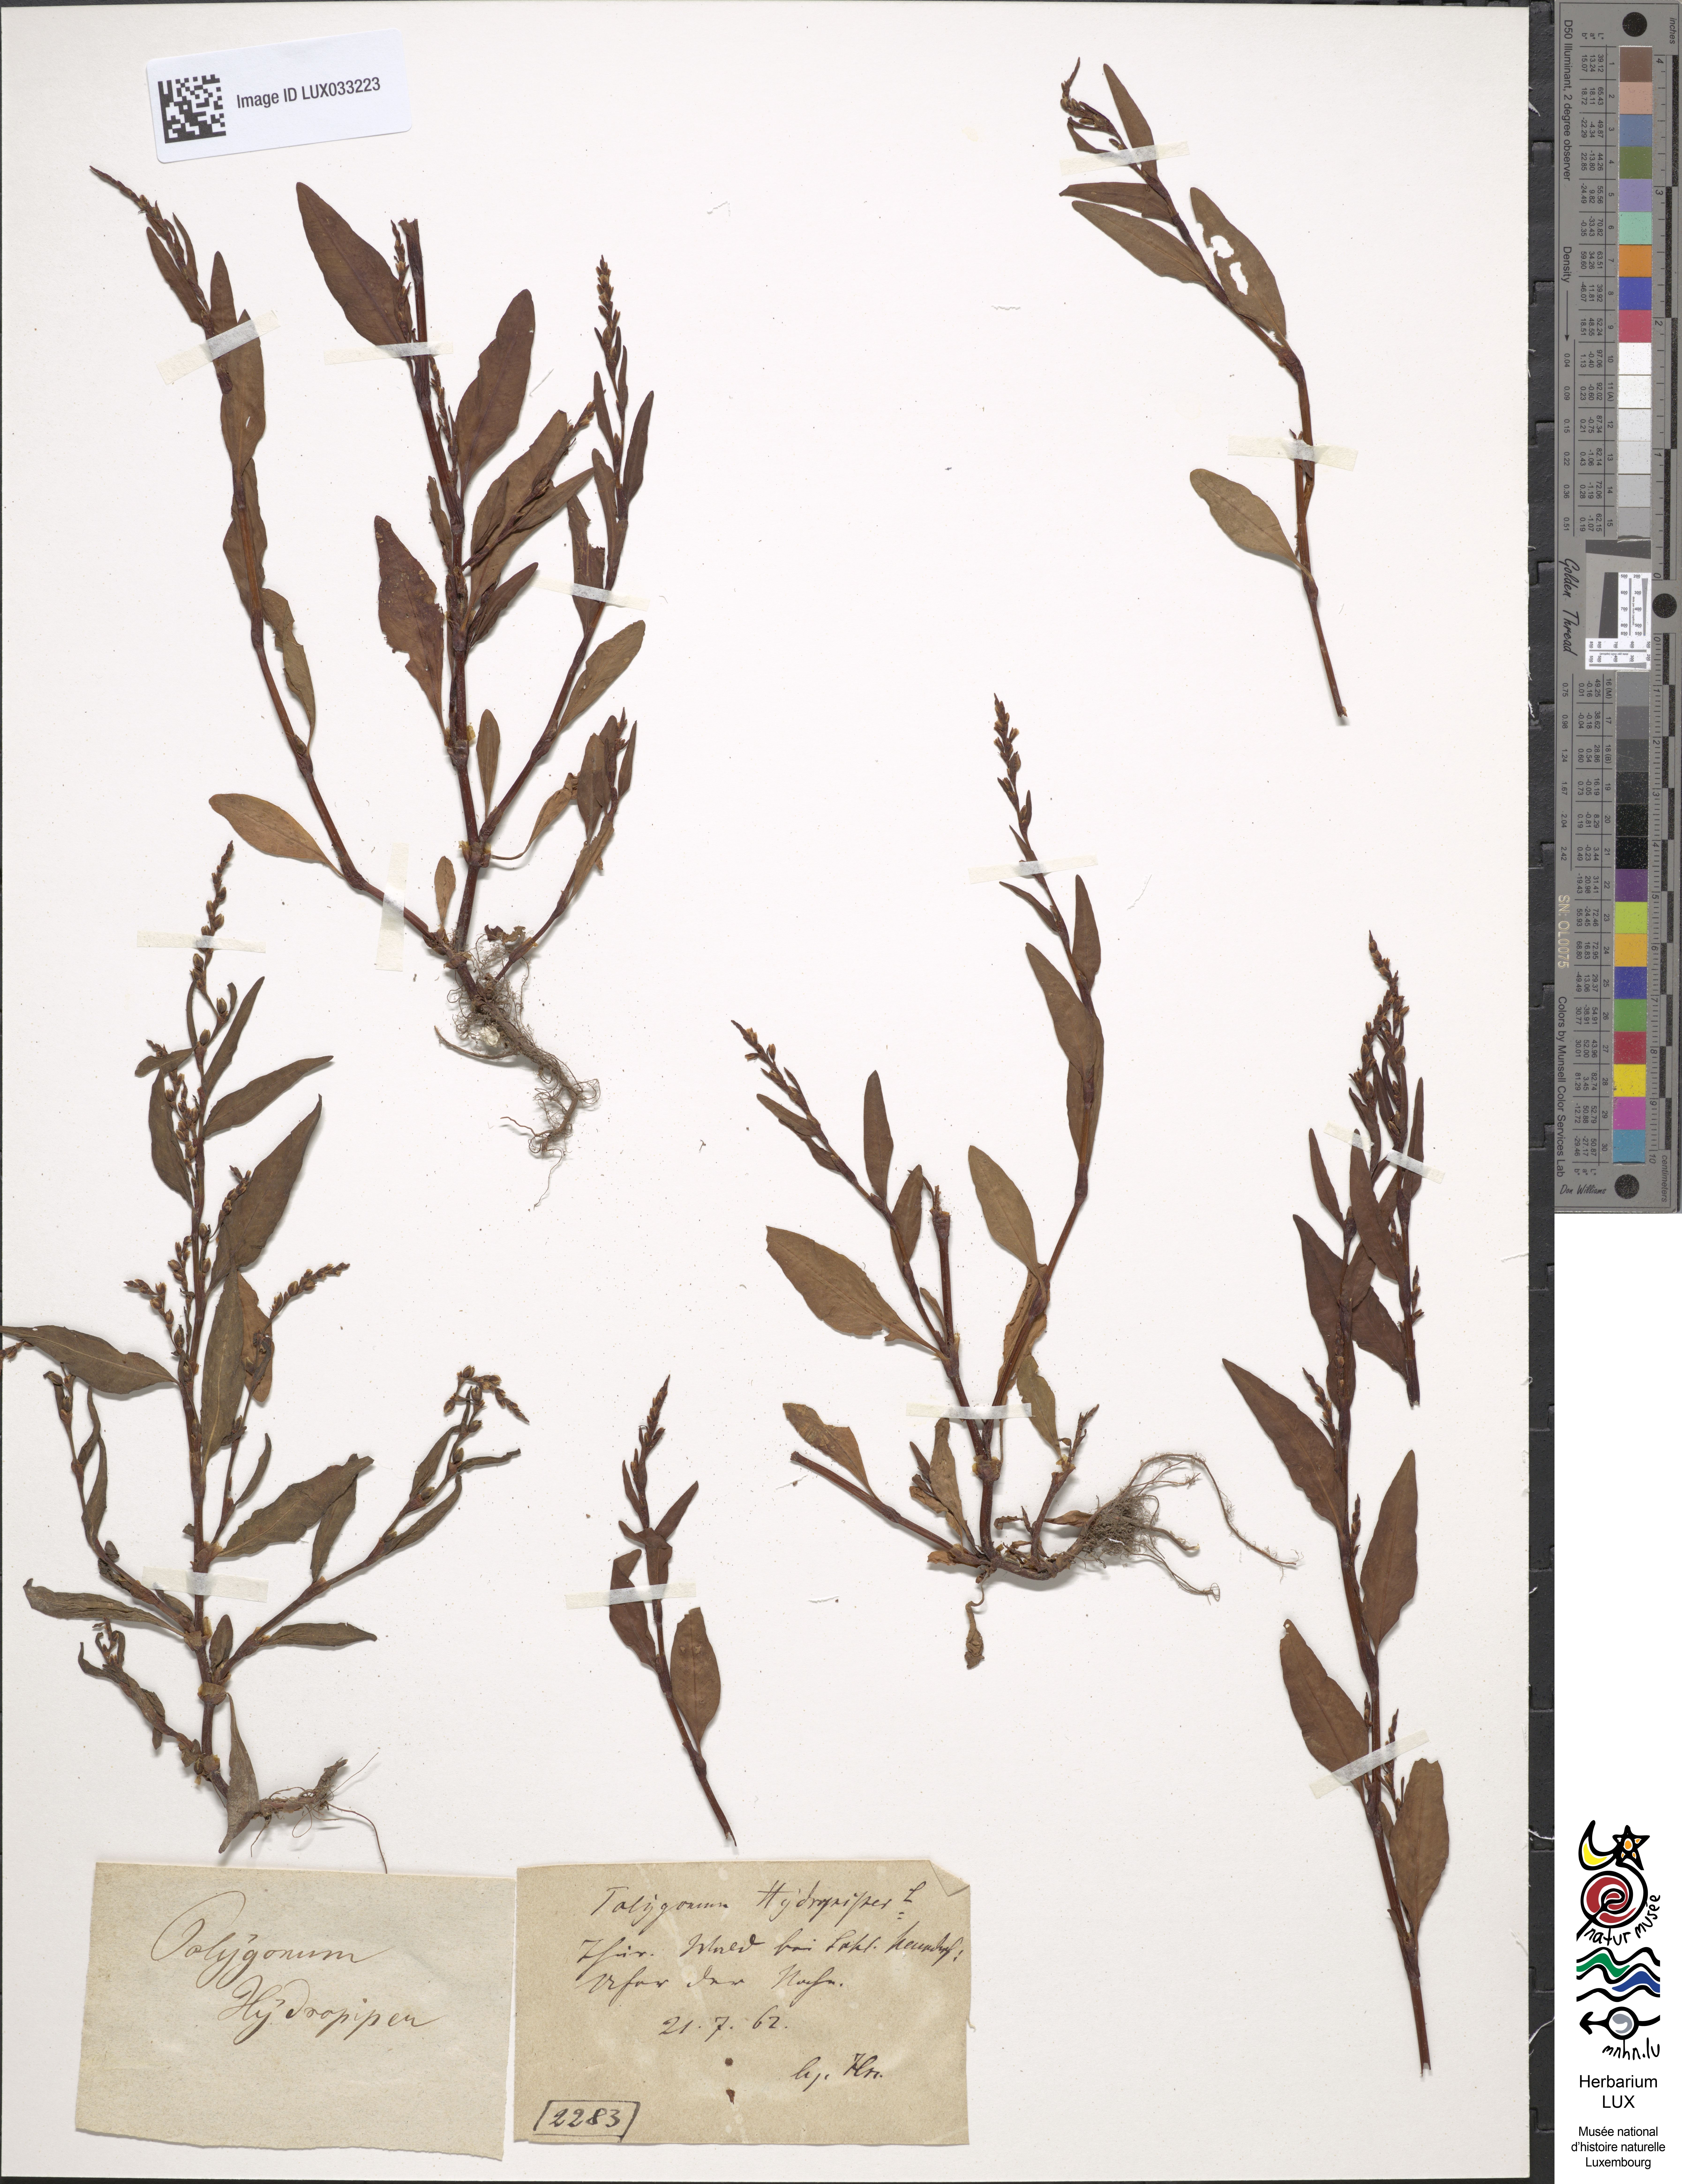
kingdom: Plantae
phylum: Tracheophyta
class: Magnoliopsida
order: Caryophyllales
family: Polygonaceae
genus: Persicaria
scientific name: Persicaria hydropiper
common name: Water-pepper
